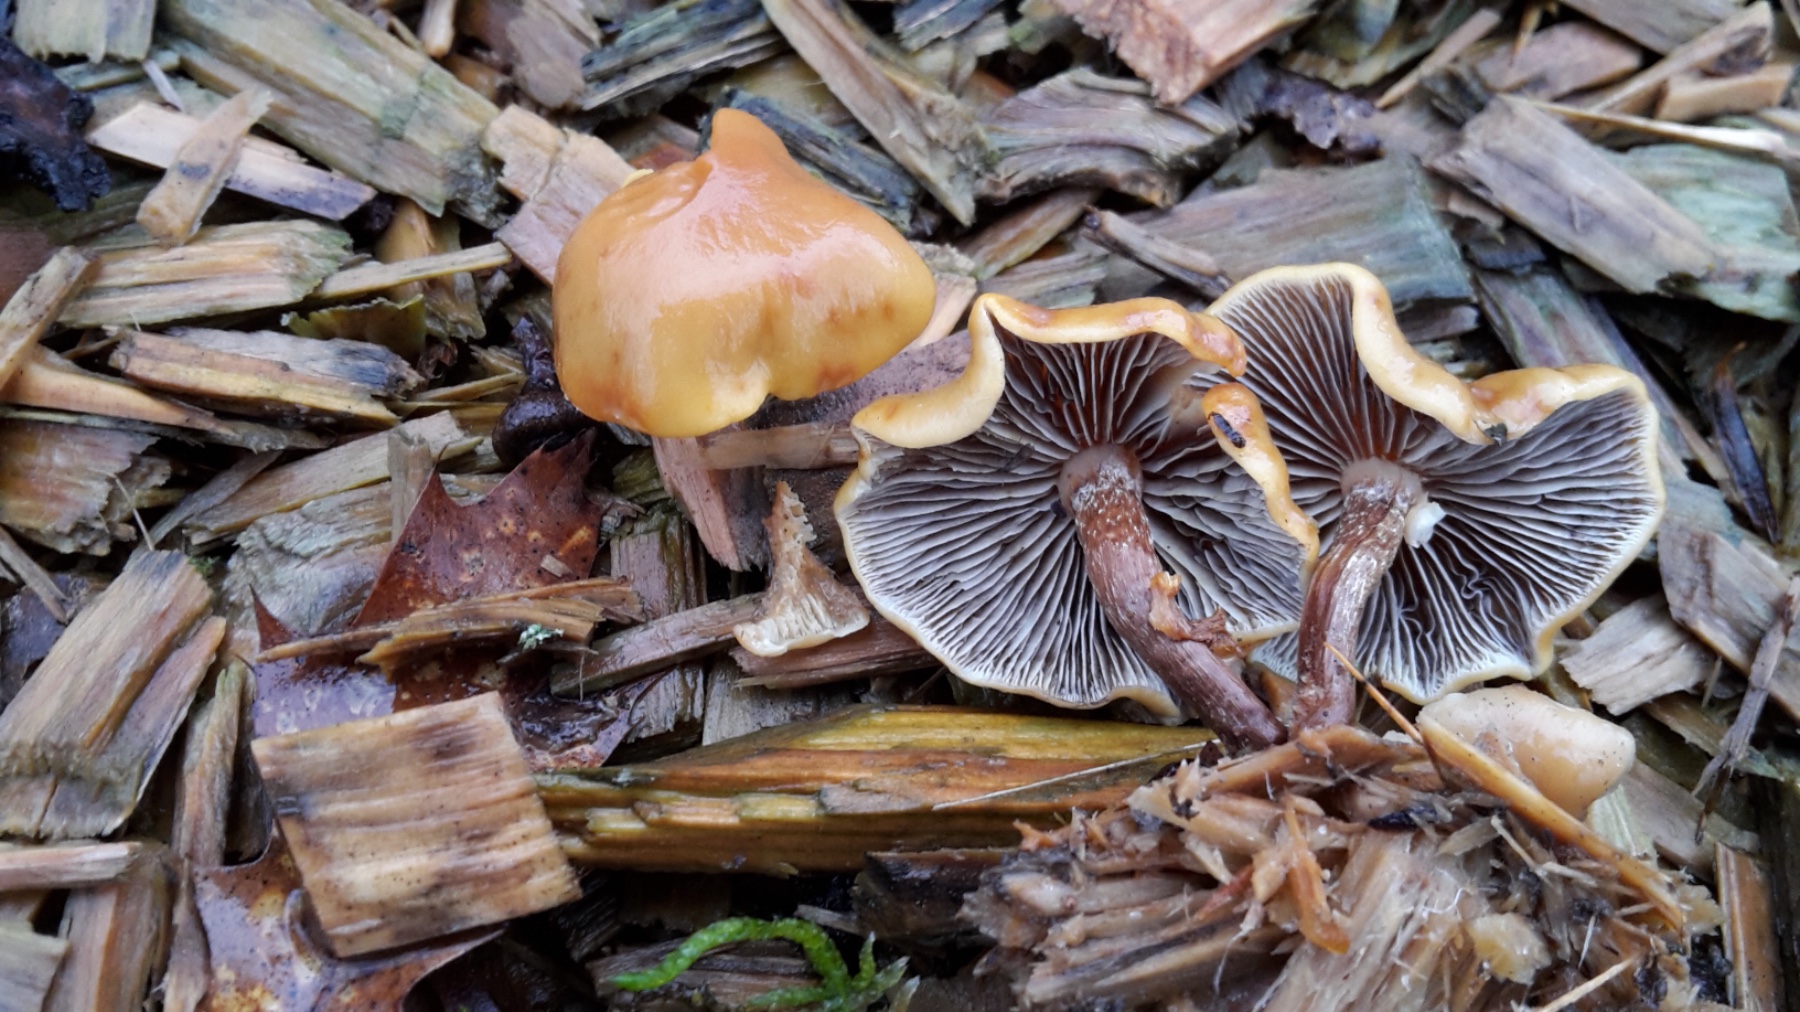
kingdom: Fungi
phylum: Basidiomycota
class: Agaricomycetes
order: Agaricales
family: Strophariaceae
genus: Hypholoma
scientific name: Hypholoma marginatum
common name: enlig svovlhat
